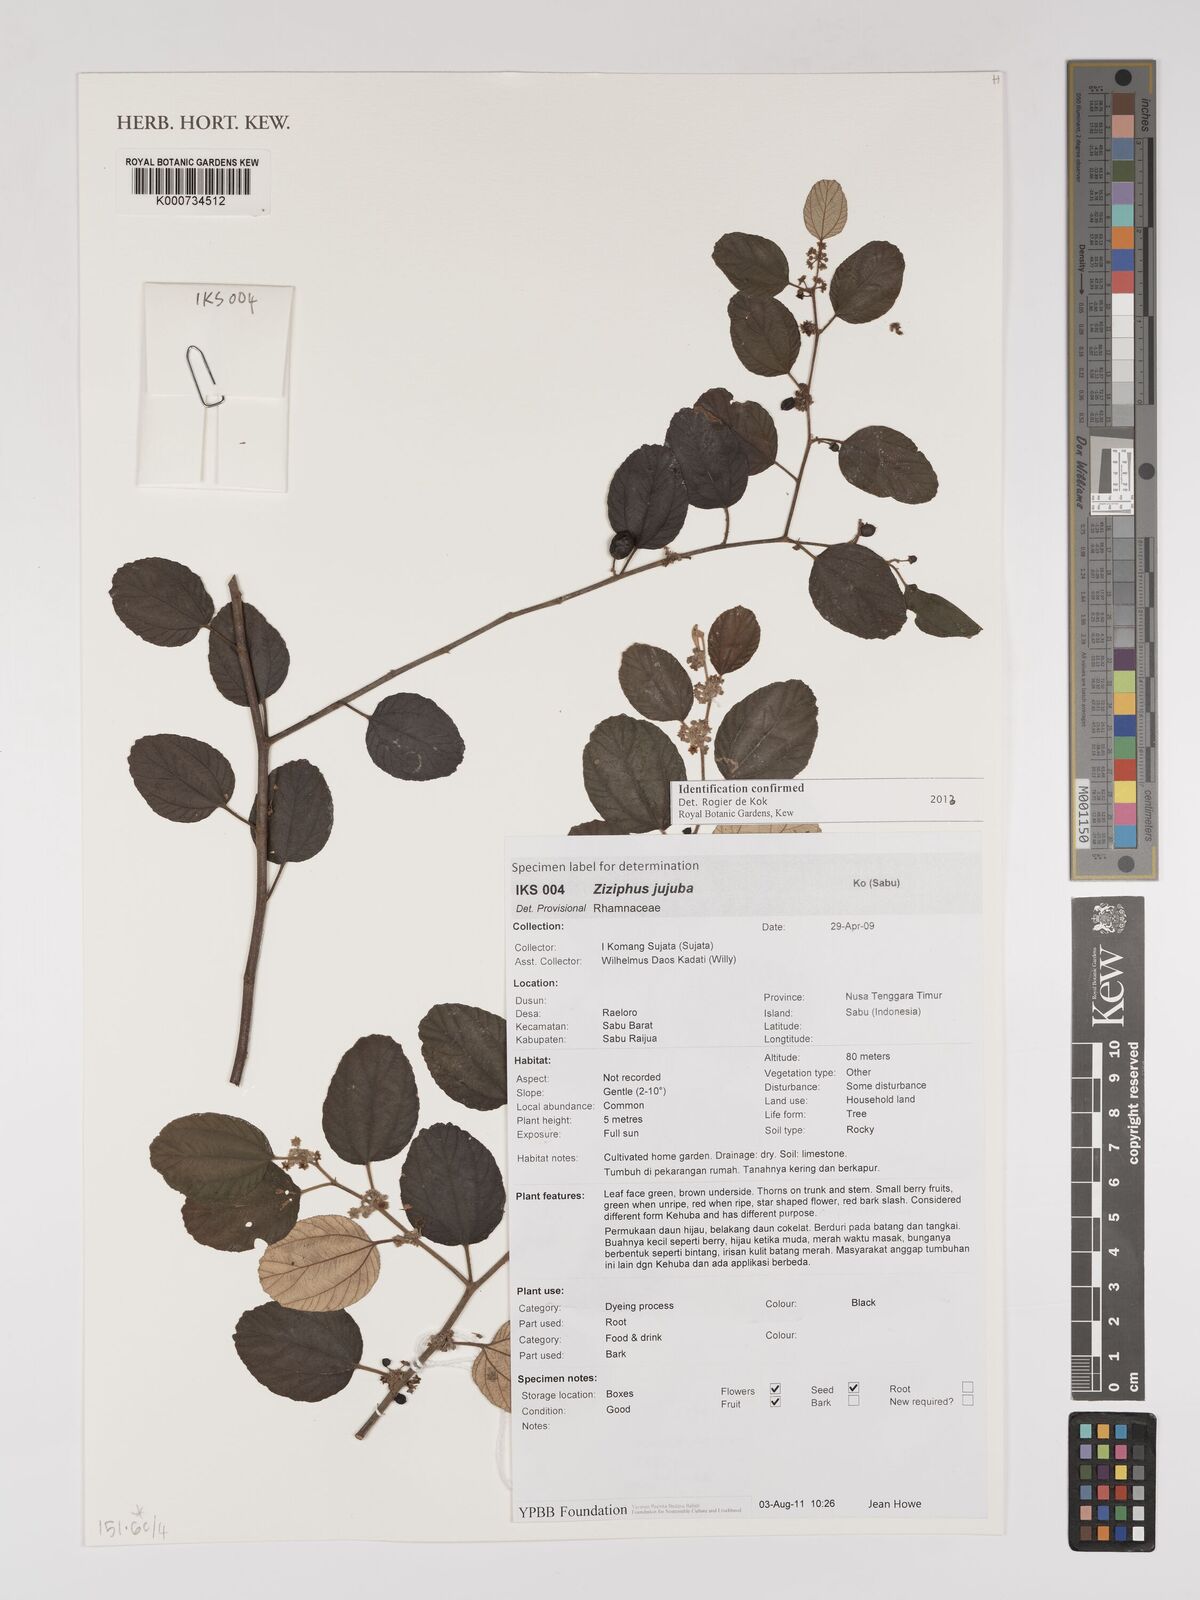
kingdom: Plantae
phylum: Tracheophyta
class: Magnoliopsida
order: Rosales
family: Rhamnaceae
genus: Ziziphus
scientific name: Ziziphus jujuba
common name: Jujube red date
